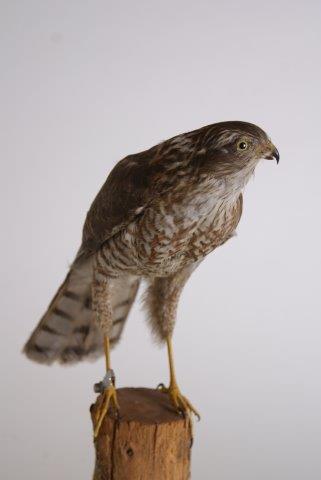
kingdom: Animalia
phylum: Chordata
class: Aves
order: Accipitriformes
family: Accipitridae
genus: Accipiter
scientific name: Accipiter nisus
